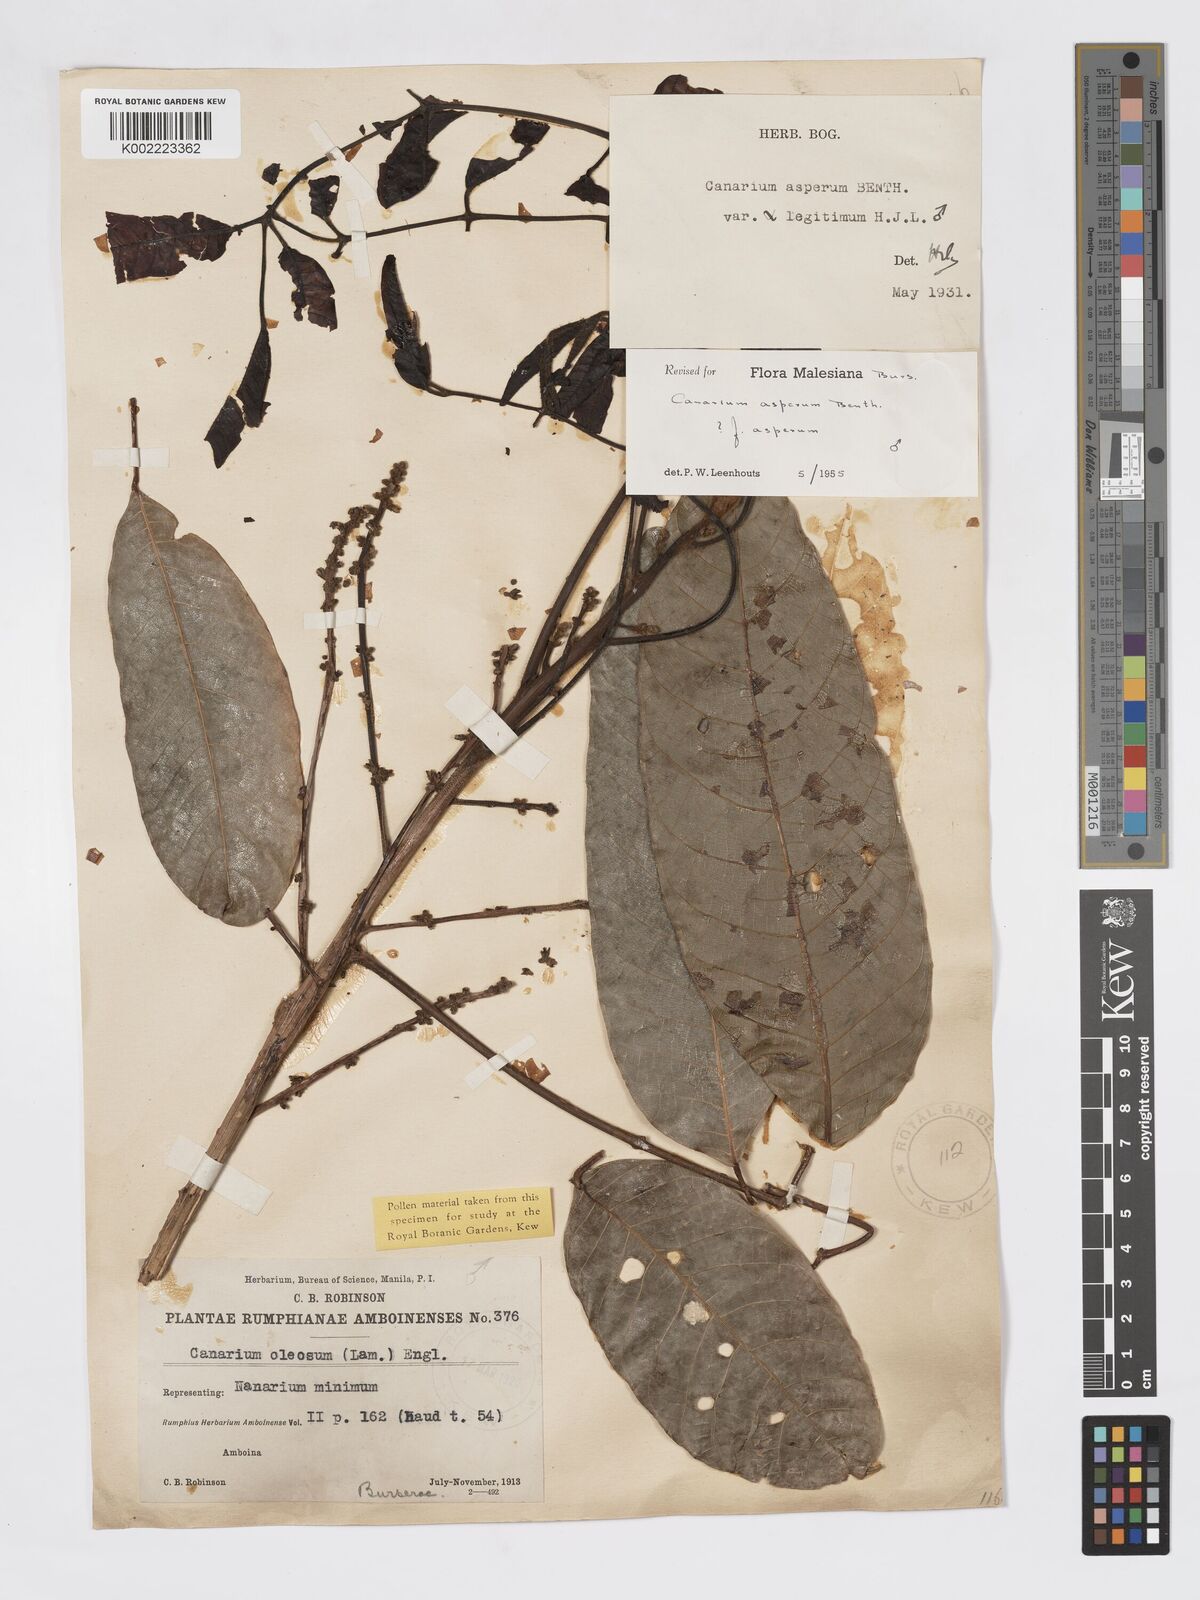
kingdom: Plantae
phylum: Tracheophyta
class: Magnoliopsida
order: Sapindales
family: Burseraceae
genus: Canarium
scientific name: Canarium asperum
